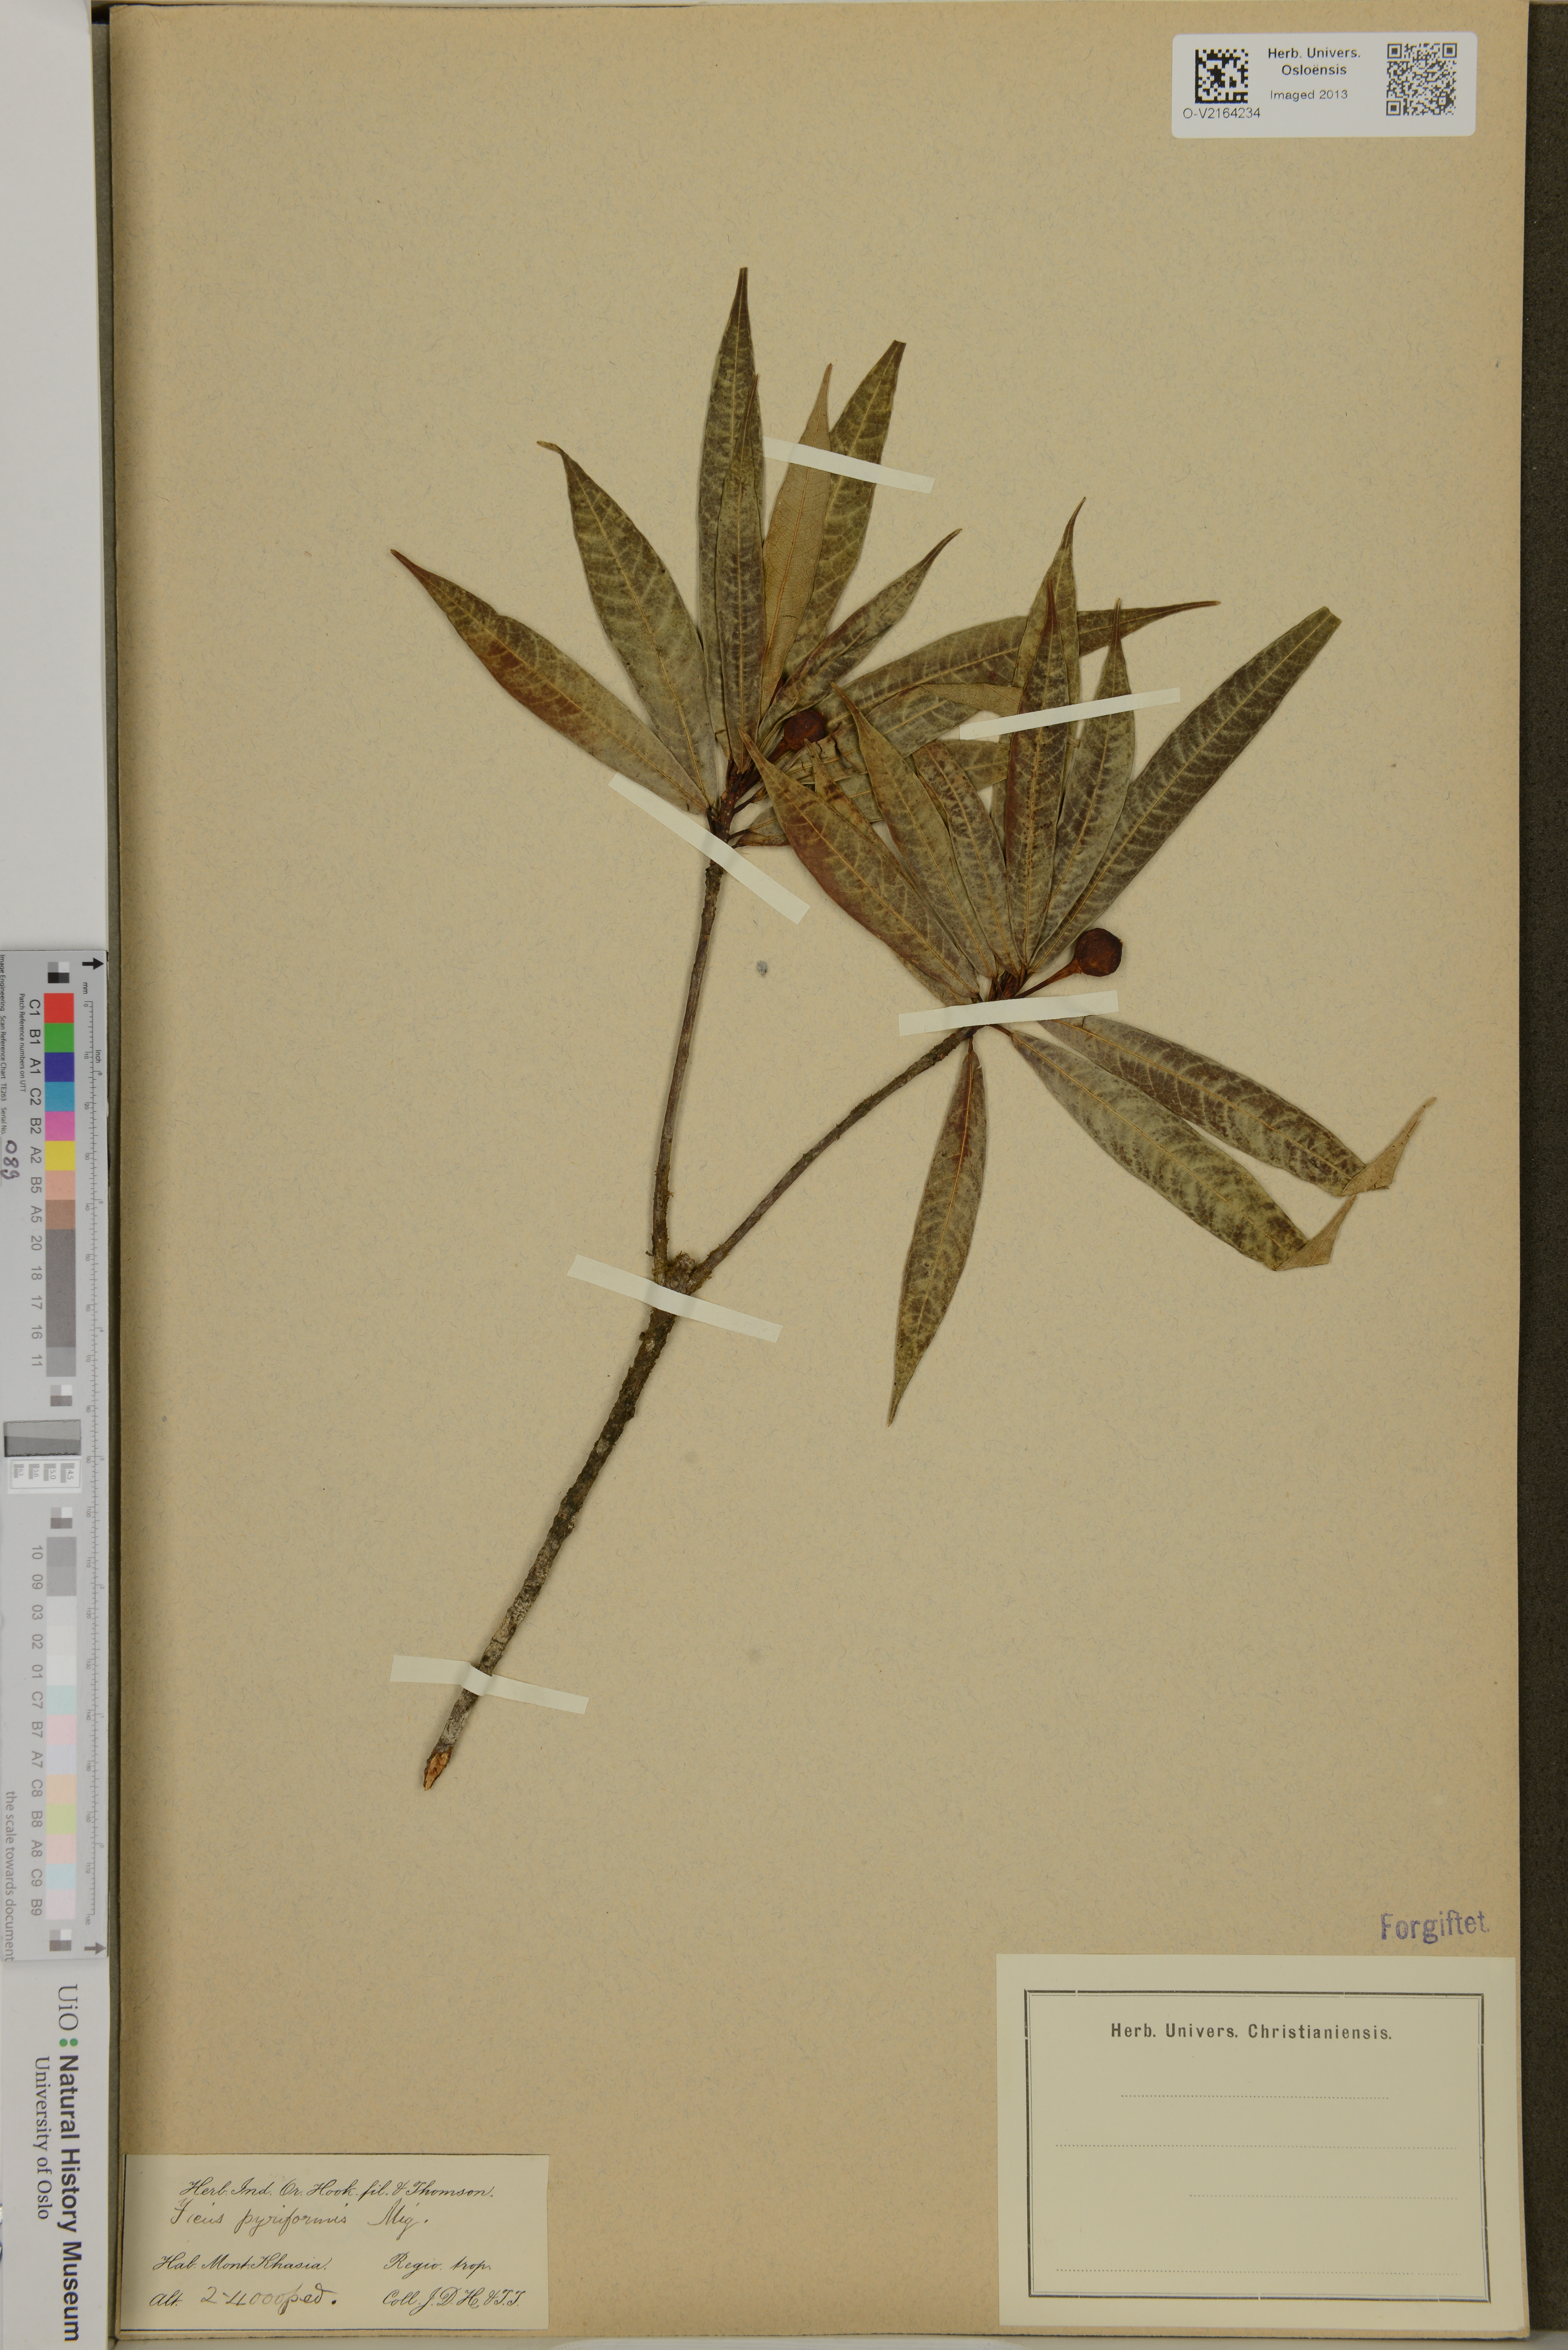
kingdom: Plantae
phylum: Tracheophyta
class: Magnoliopsida
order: Rosales
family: Moraceae
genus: Ficus
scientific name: Ficus pyriformis
